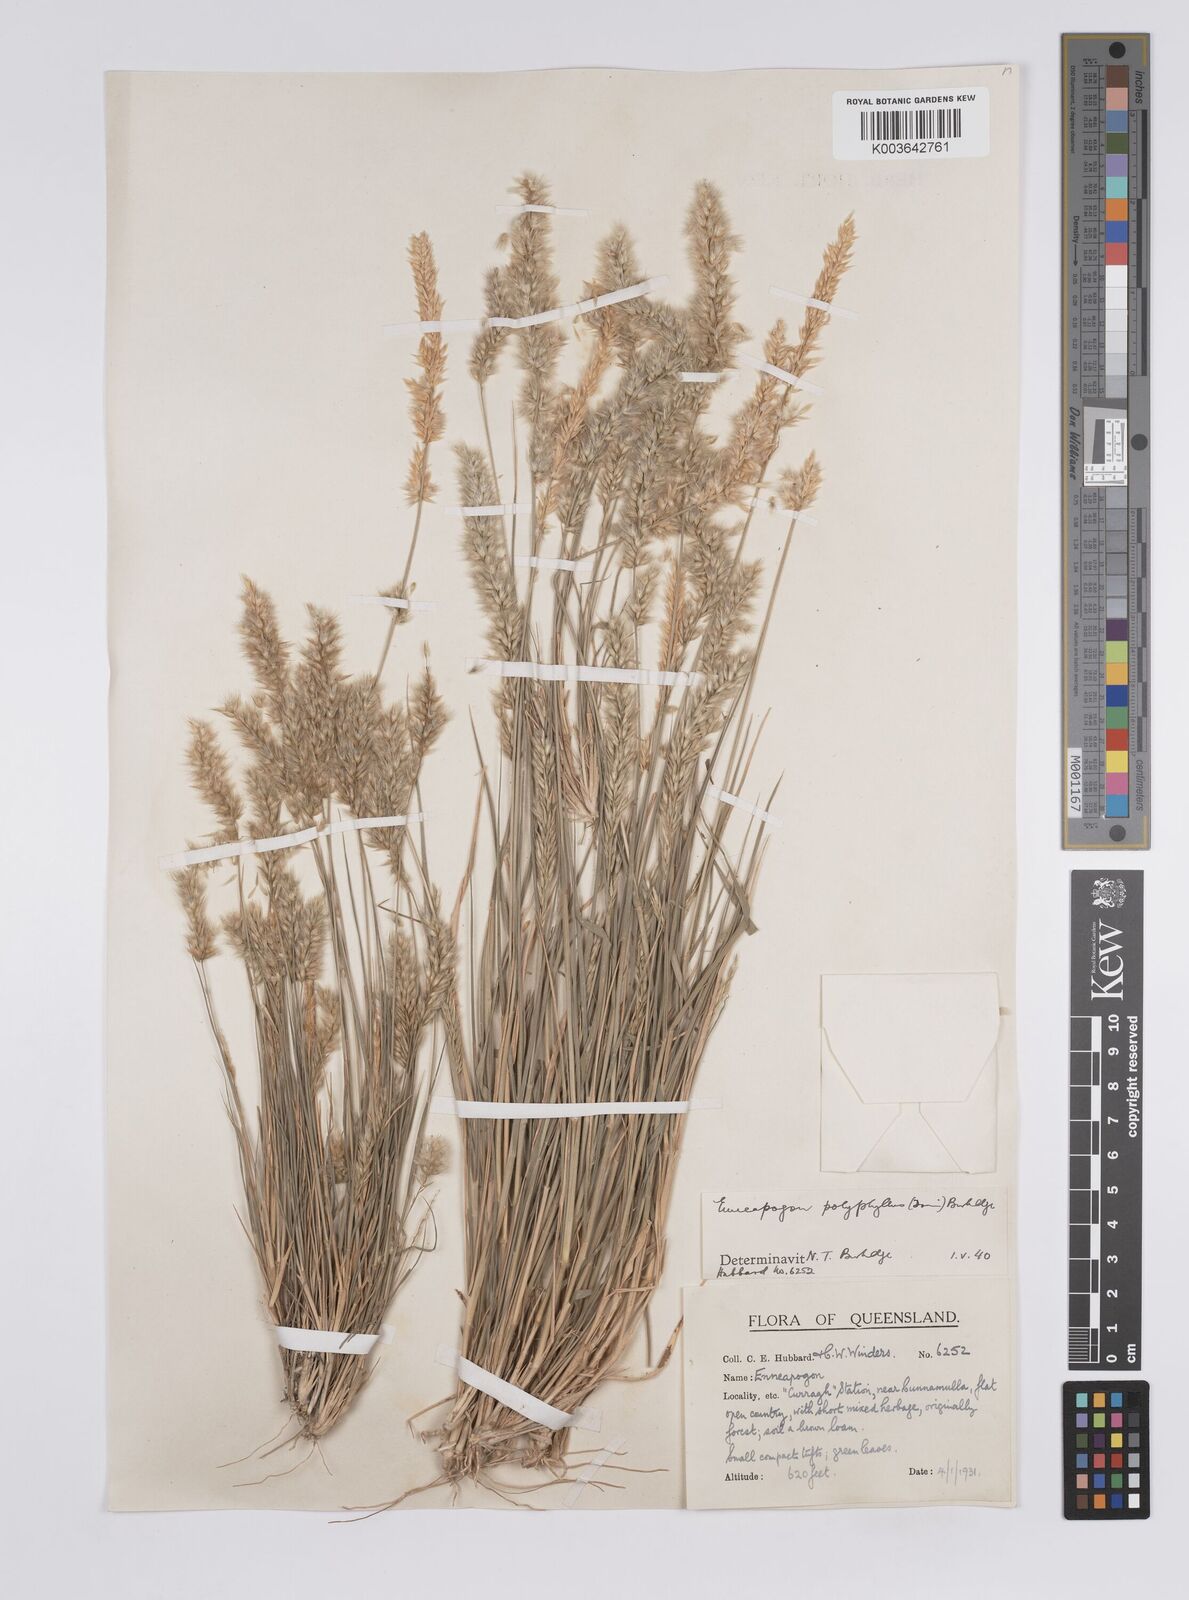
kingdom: Plantae
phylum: Tracheophyta
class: Liliopsida
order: Poales
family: Poaceae
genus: Enneapogon
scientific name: Enneapogon polyphyllus
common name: Leafy nineawn
